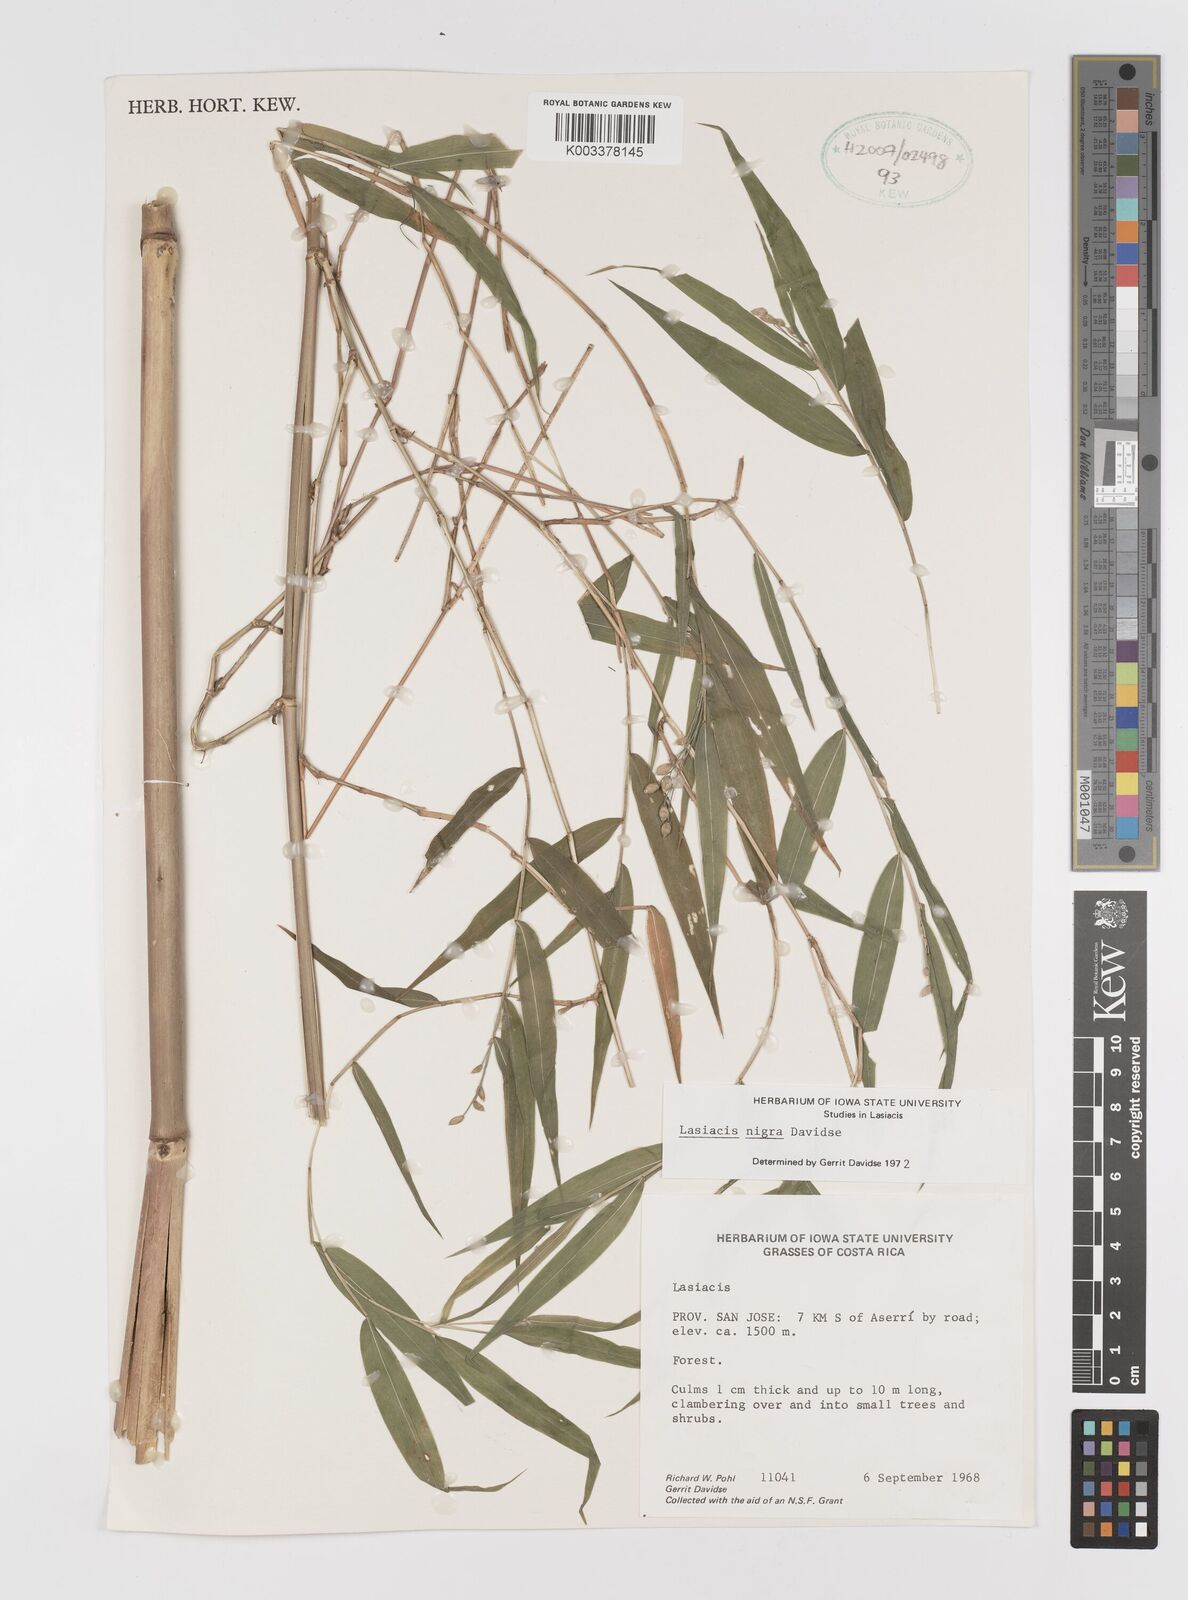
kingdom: Plantae
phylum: Tracheophyta
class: Liliopsida
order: Poales
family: Poaceae
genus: Lasiacis
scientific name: Lasiacis nigra
